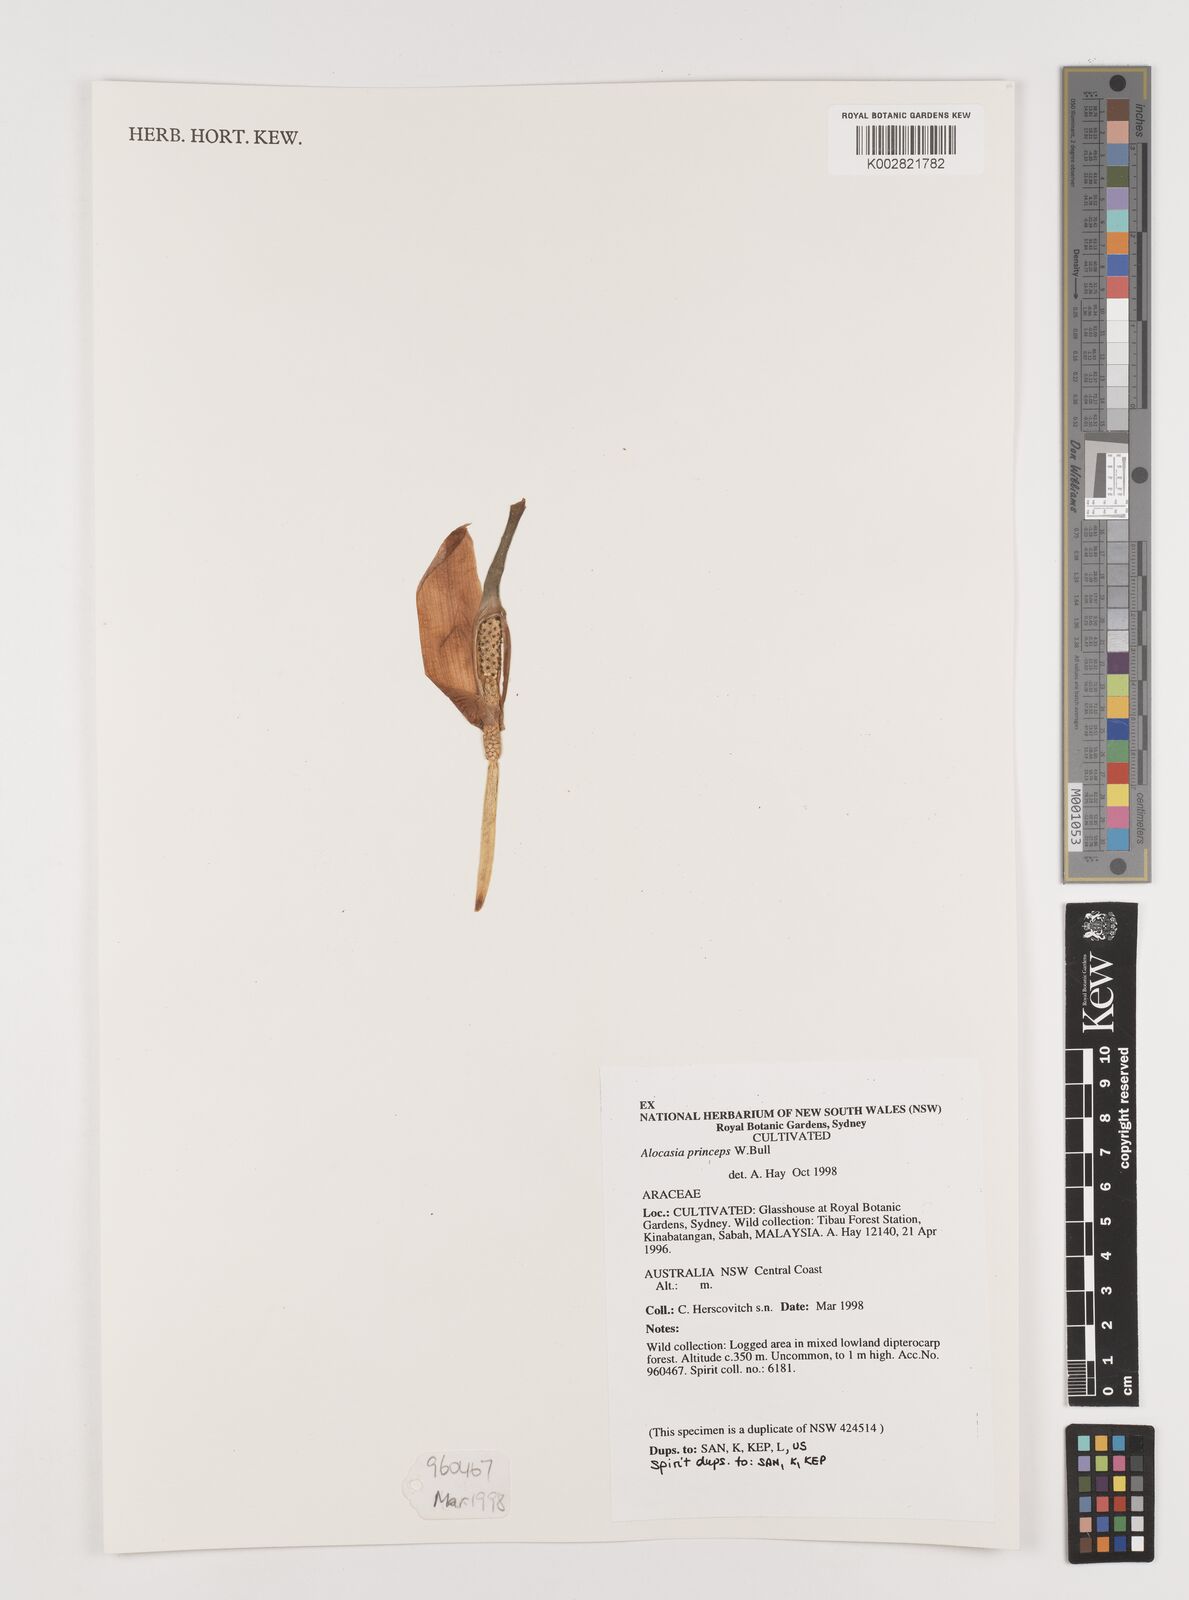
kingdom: Plantae
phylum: Tracheophyta
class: Liliopsida
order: Alismatales
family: Araceae
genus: Alocasia
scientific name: Alocasia
